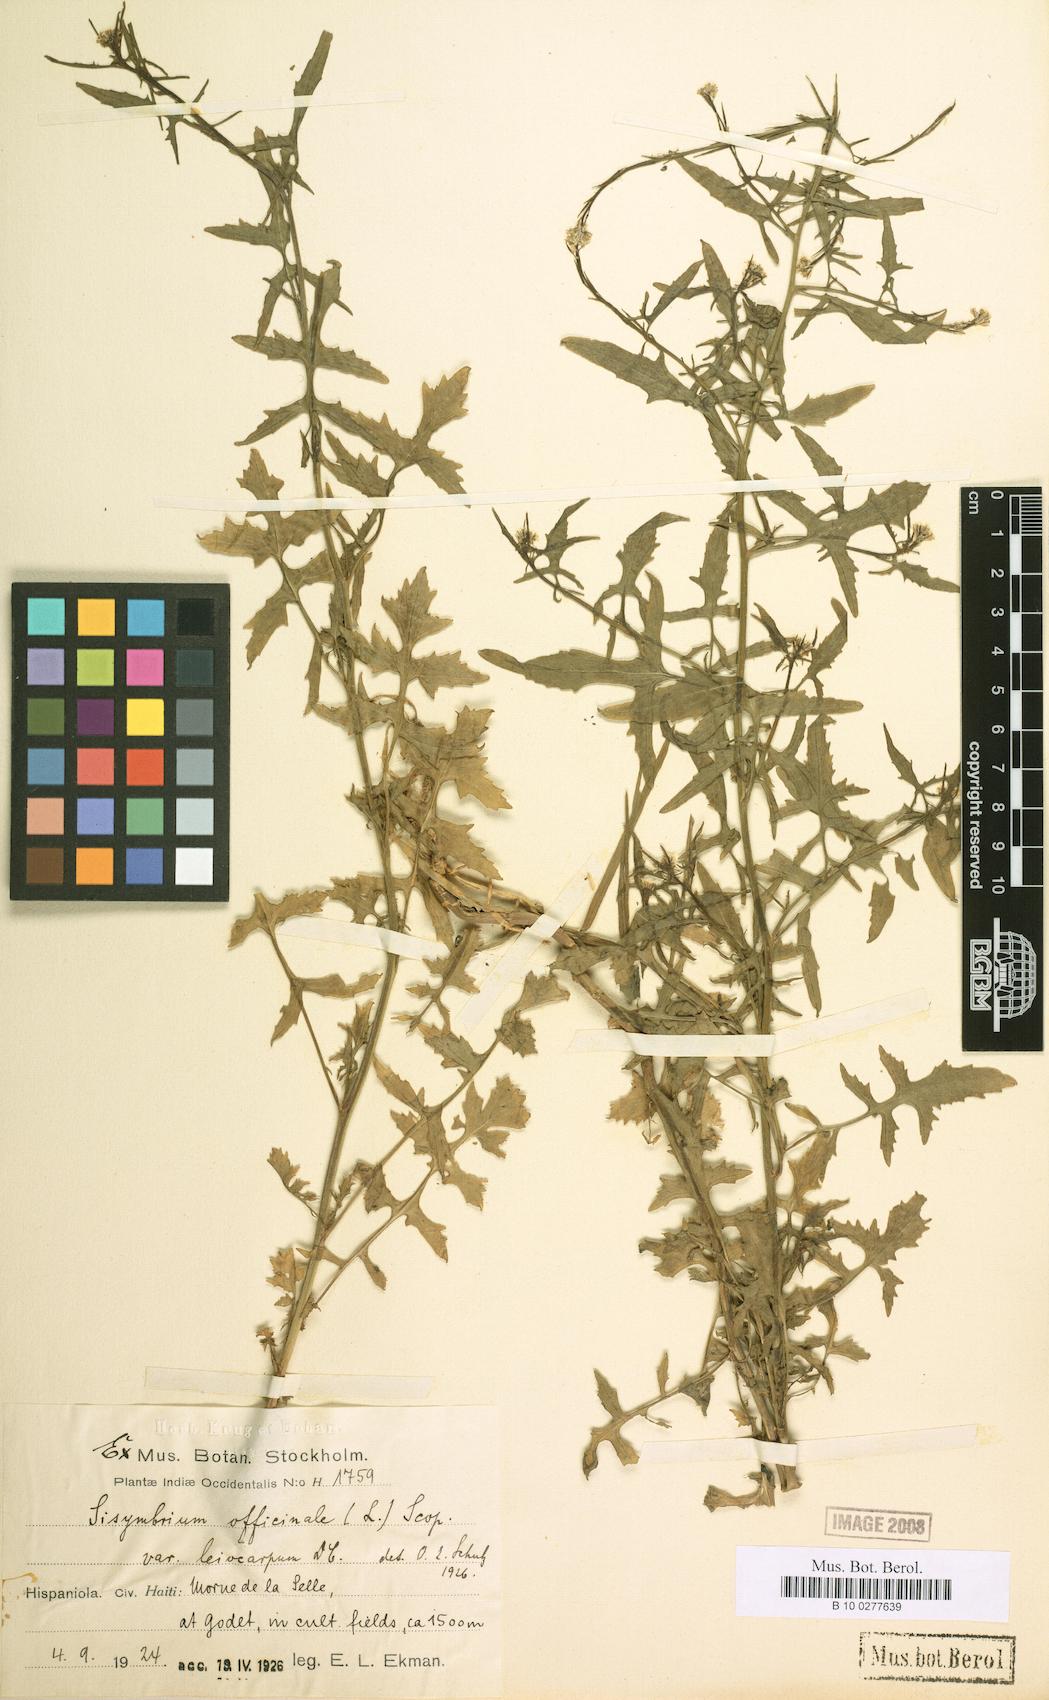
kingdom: Plantae
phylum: Tracheophyta
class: Magnoliopsida
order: Brassicales
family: Brassicaceae
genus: Sisymbrium
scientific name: Sisymbrium officinale
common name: Hedge mustard
